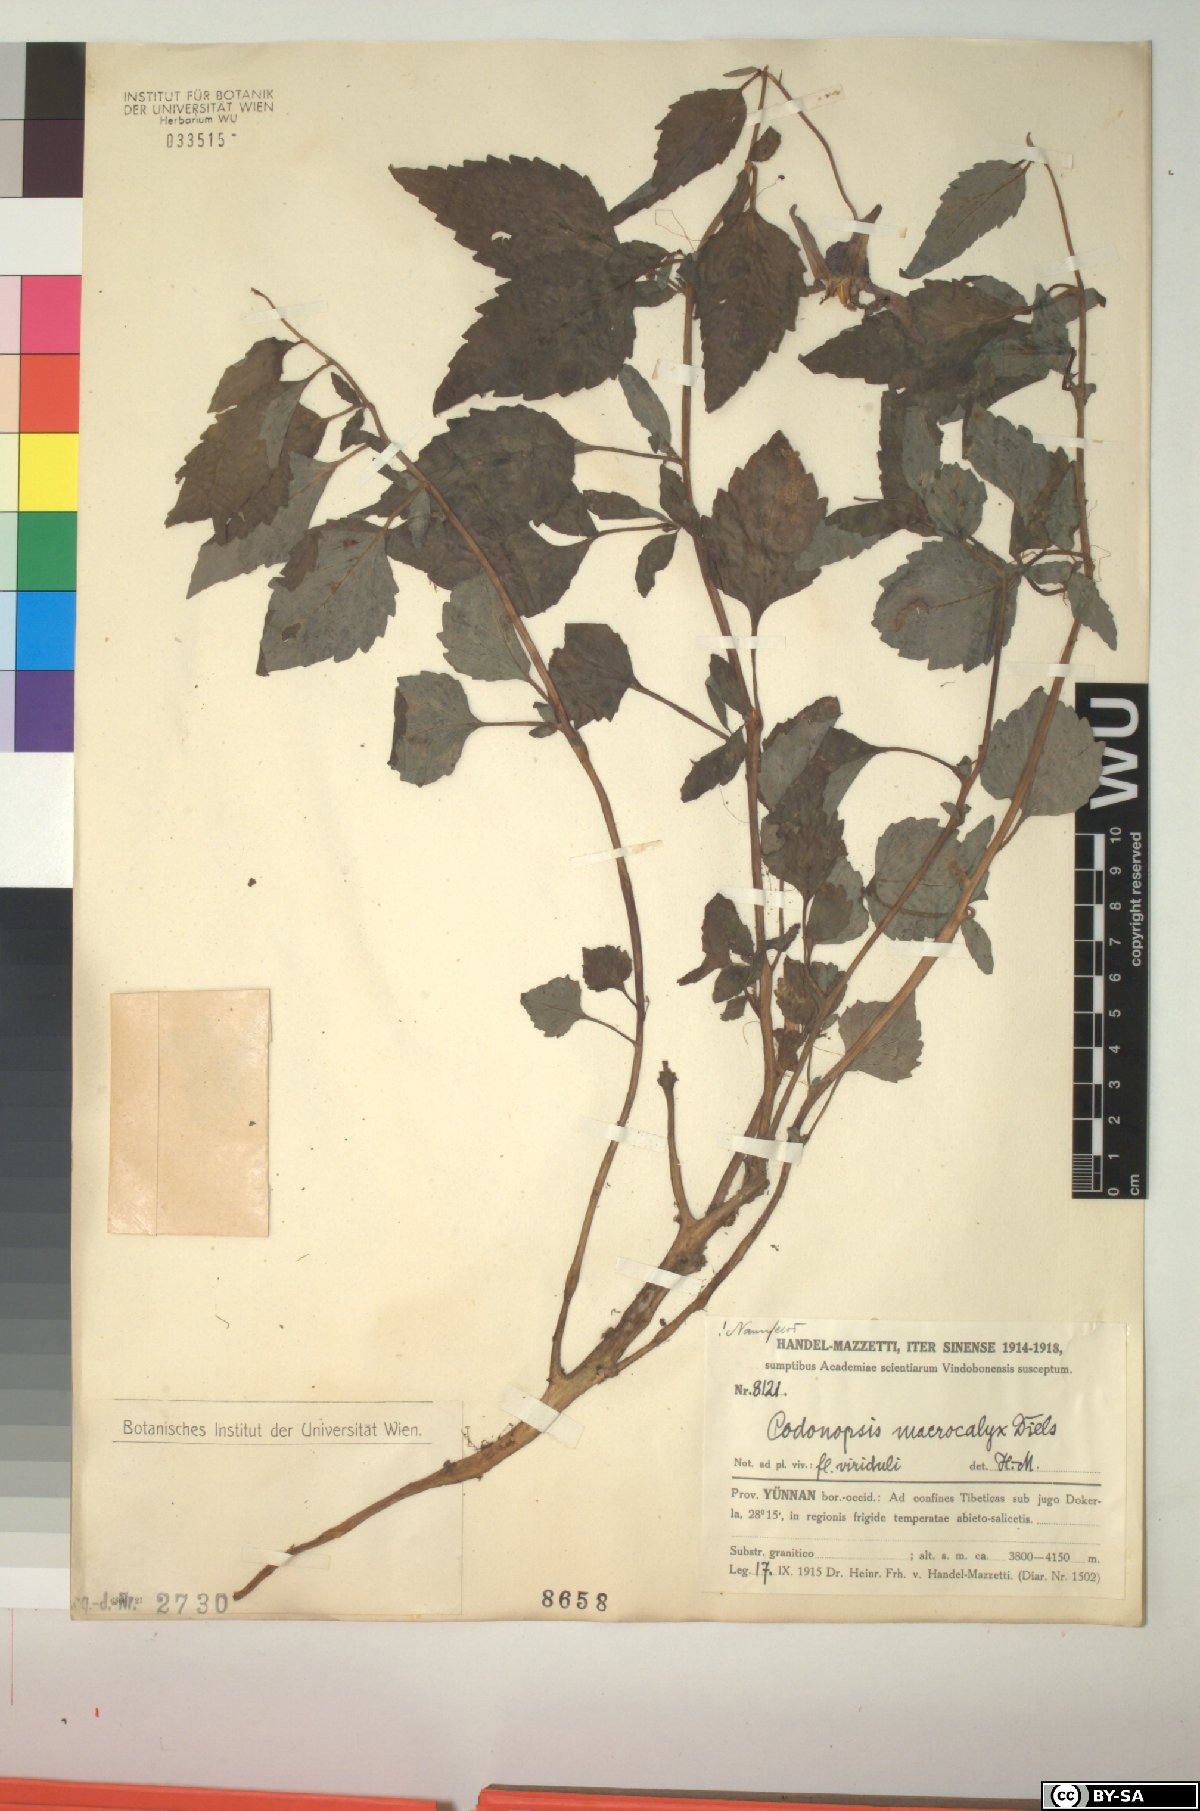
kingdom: Plantae
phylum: Tracheophyta
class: Magnoliopsida
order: Asterales
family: Campanulaceae
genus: Codonopsis
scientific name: Codonopsis benthamii
